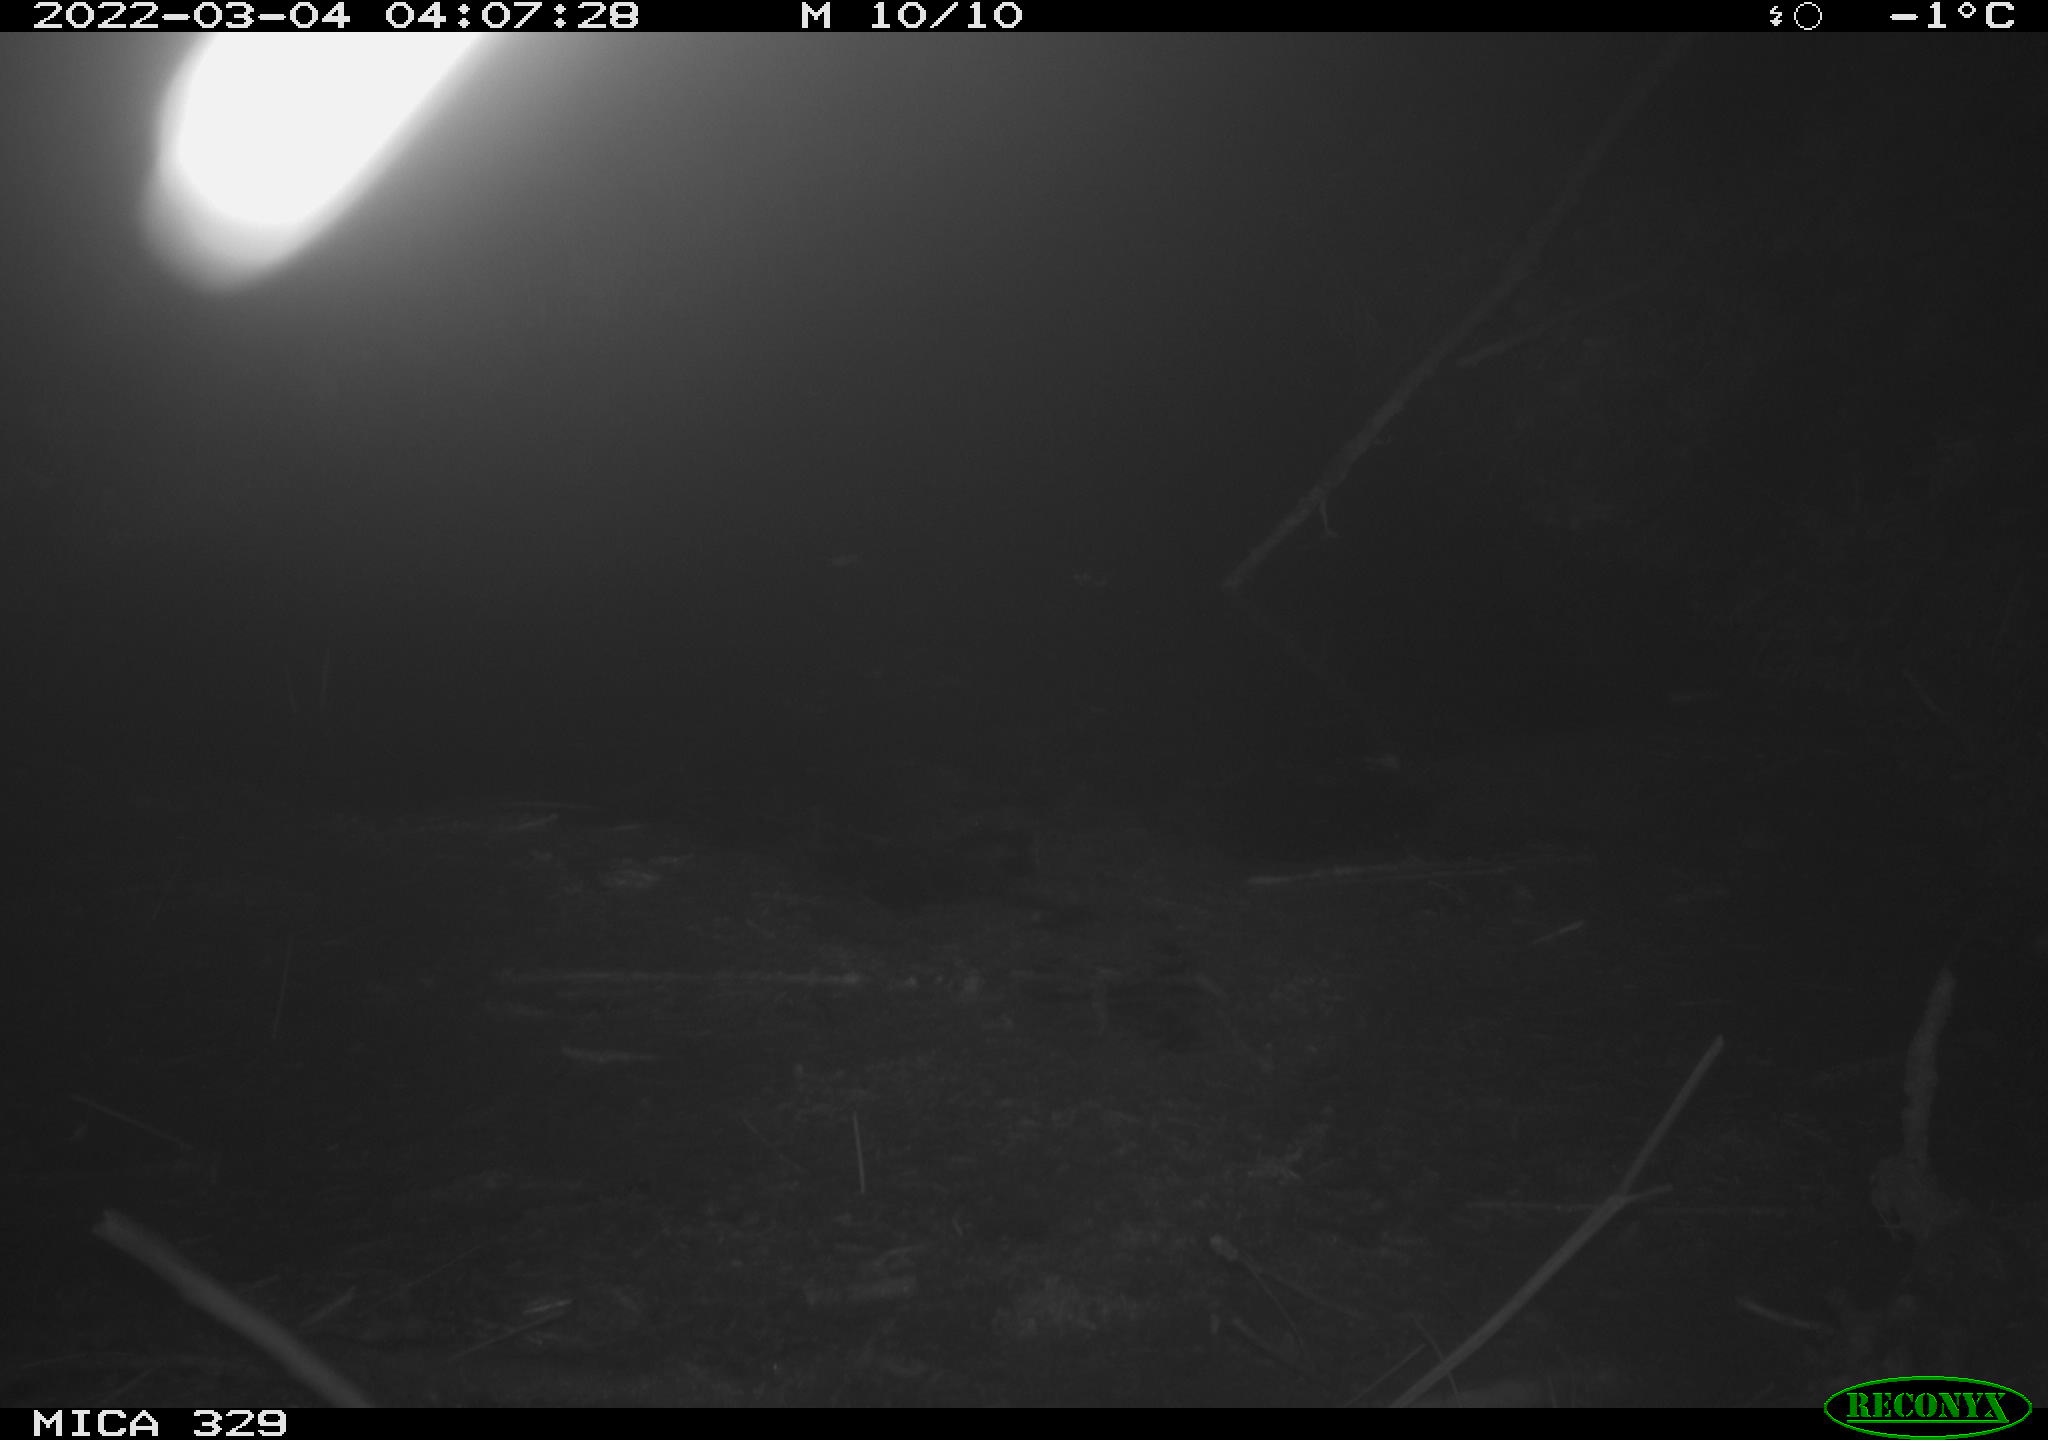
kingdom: Animalia
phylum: Chordata
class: Mammalia
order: Rodentia
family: Cricetidae
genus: Ondatra
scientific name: Ondatra zibethicus
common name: Muskrat
